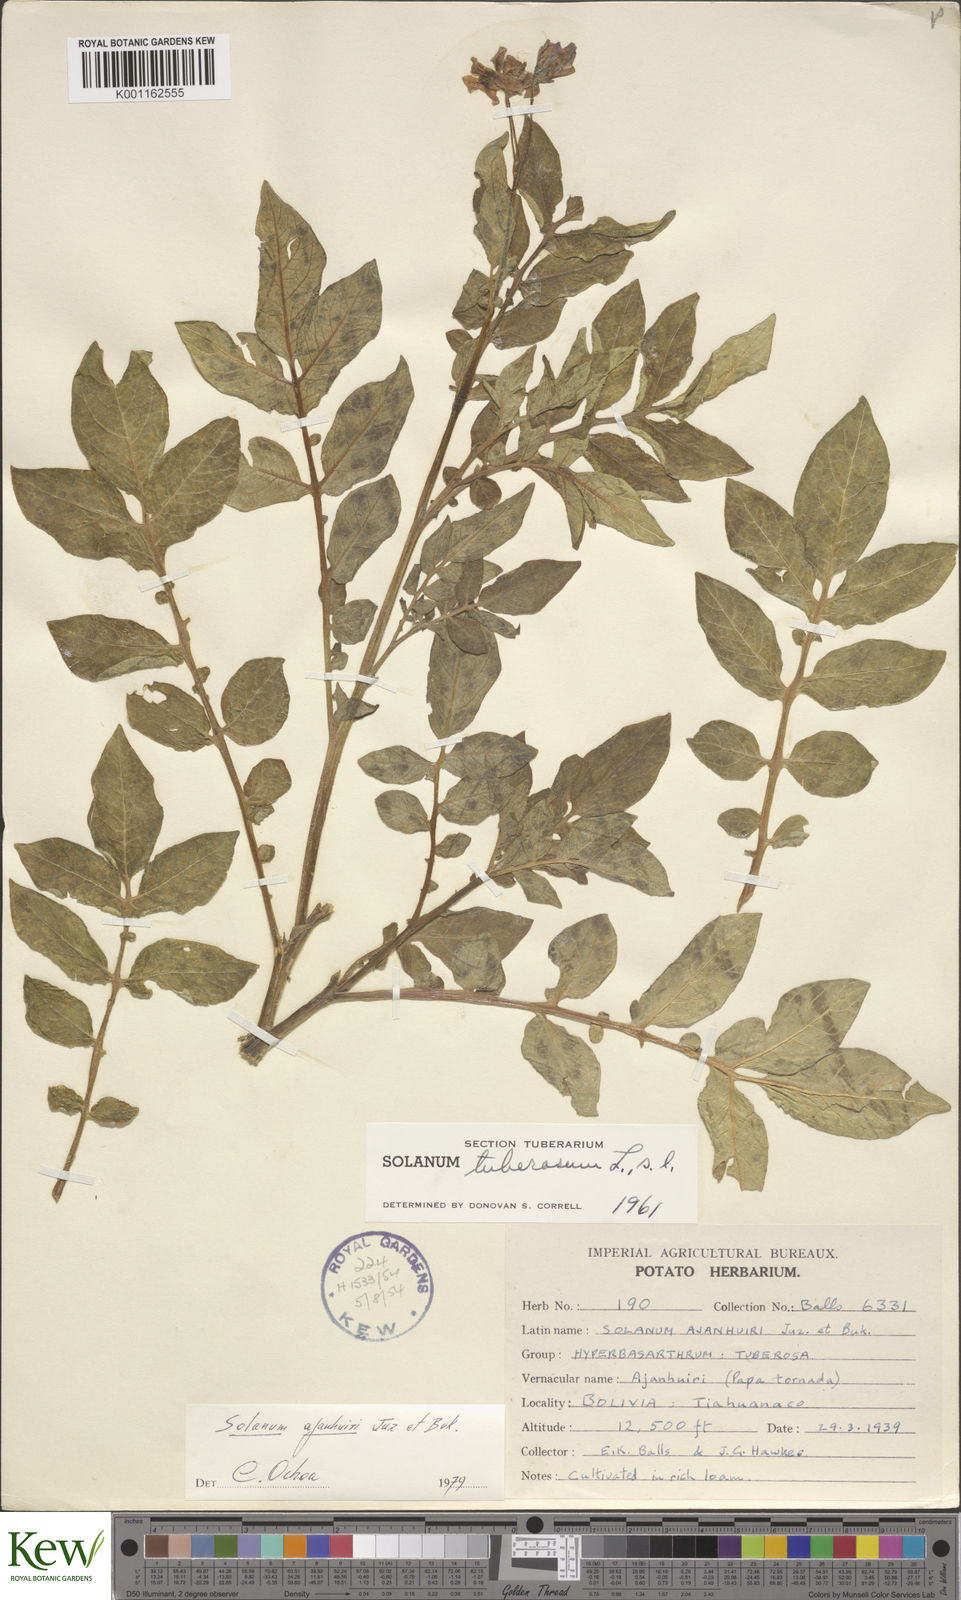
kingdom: Plantae
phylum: Tracheophyta
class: Magnoliopsida
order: Solanales
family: Solanaceae
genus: Solanum
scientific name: Solanum ajanhuiri
